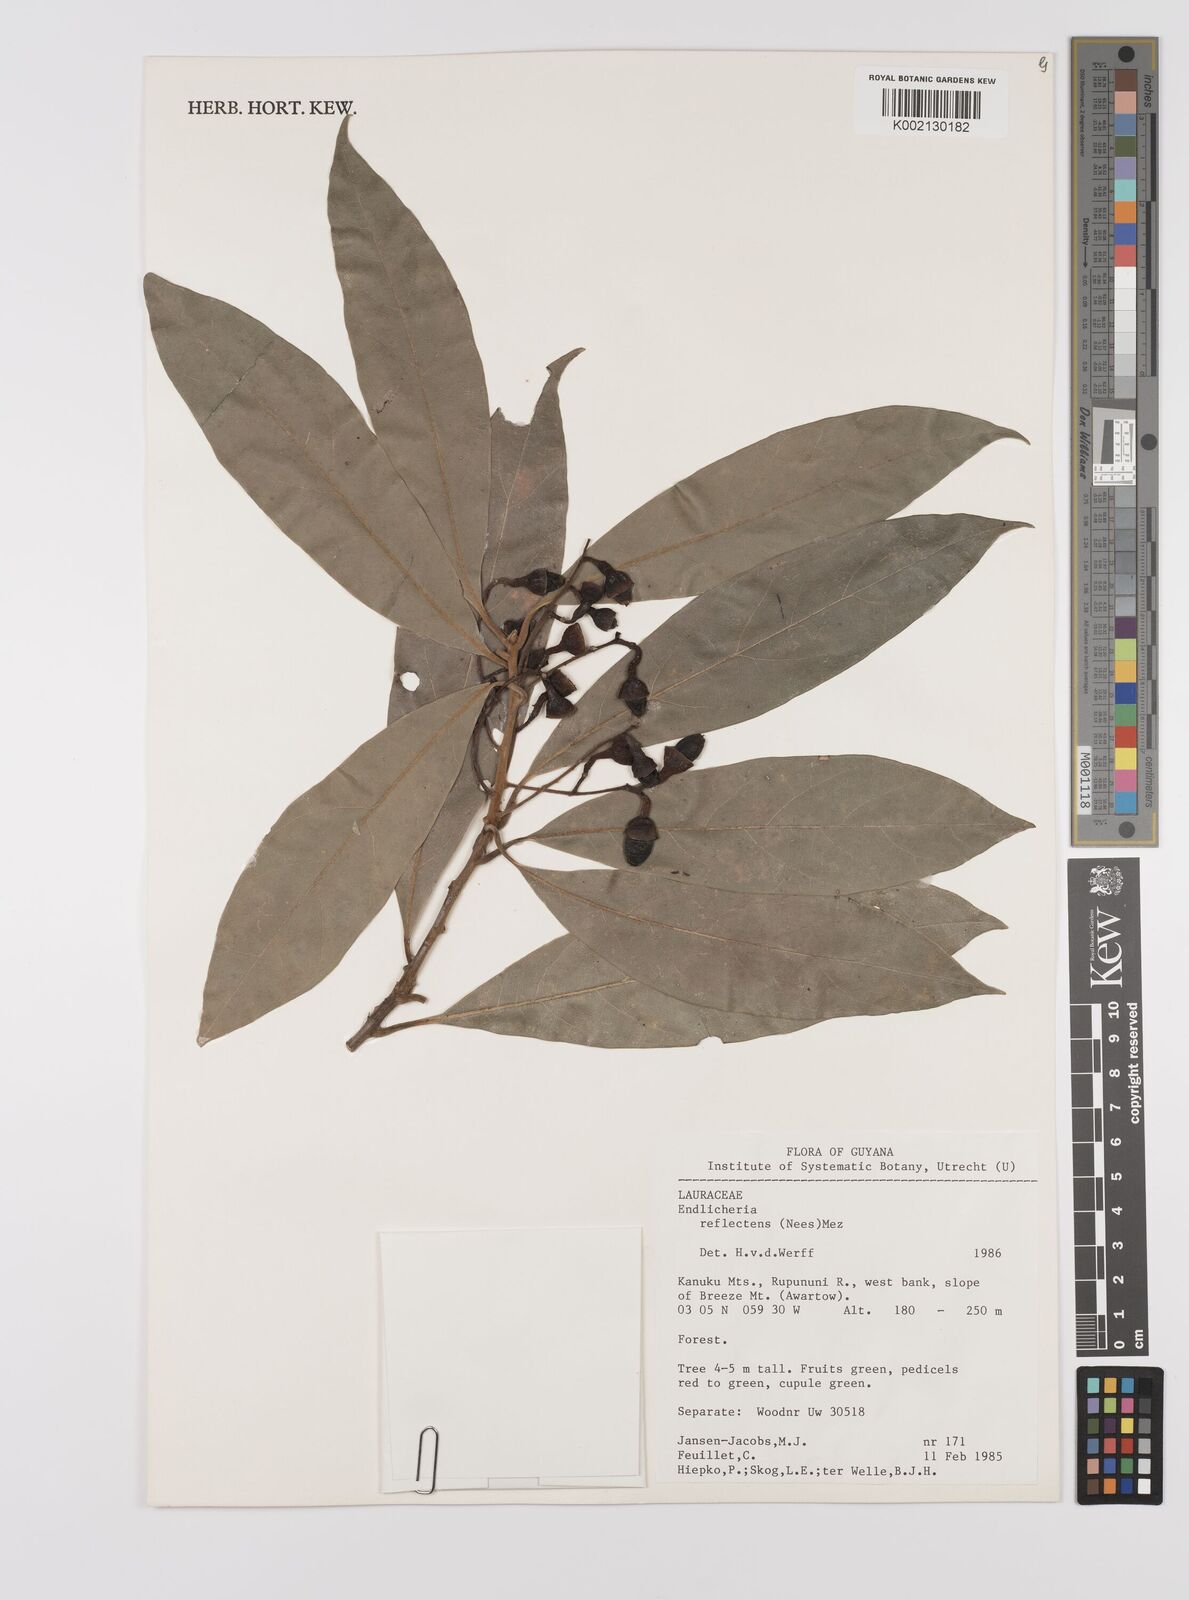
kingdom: Plantae
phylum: Tracheophyta
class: Magnoliopsida
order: Laurales
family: Lauraceae
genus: Endlicheria
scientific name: Endlicheria reflectens
